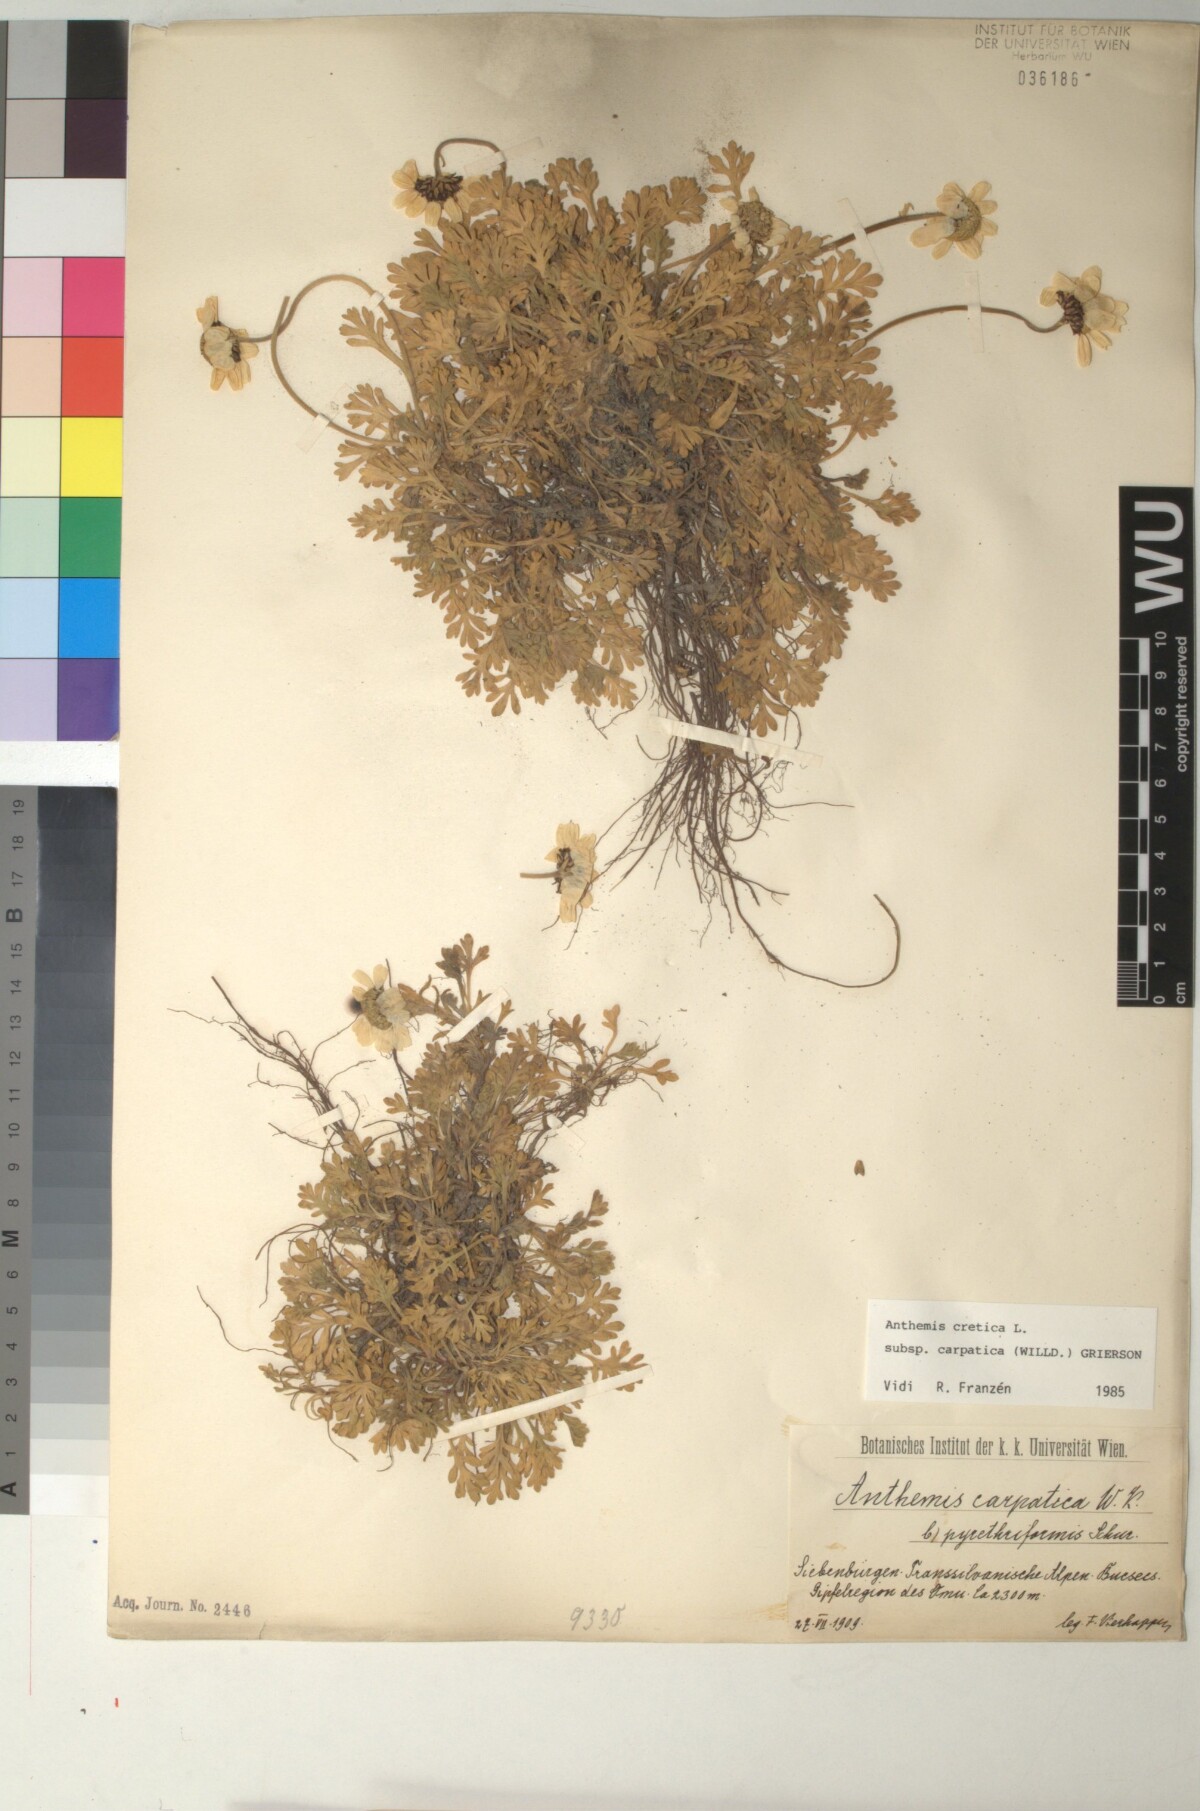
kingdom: Plantae
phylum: Tracheophyta
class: Magnoliopsida
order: Asterales
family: Asteraceae
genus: Anthemis
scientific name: Anthemis cretica
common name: Mountain dog-daisy
